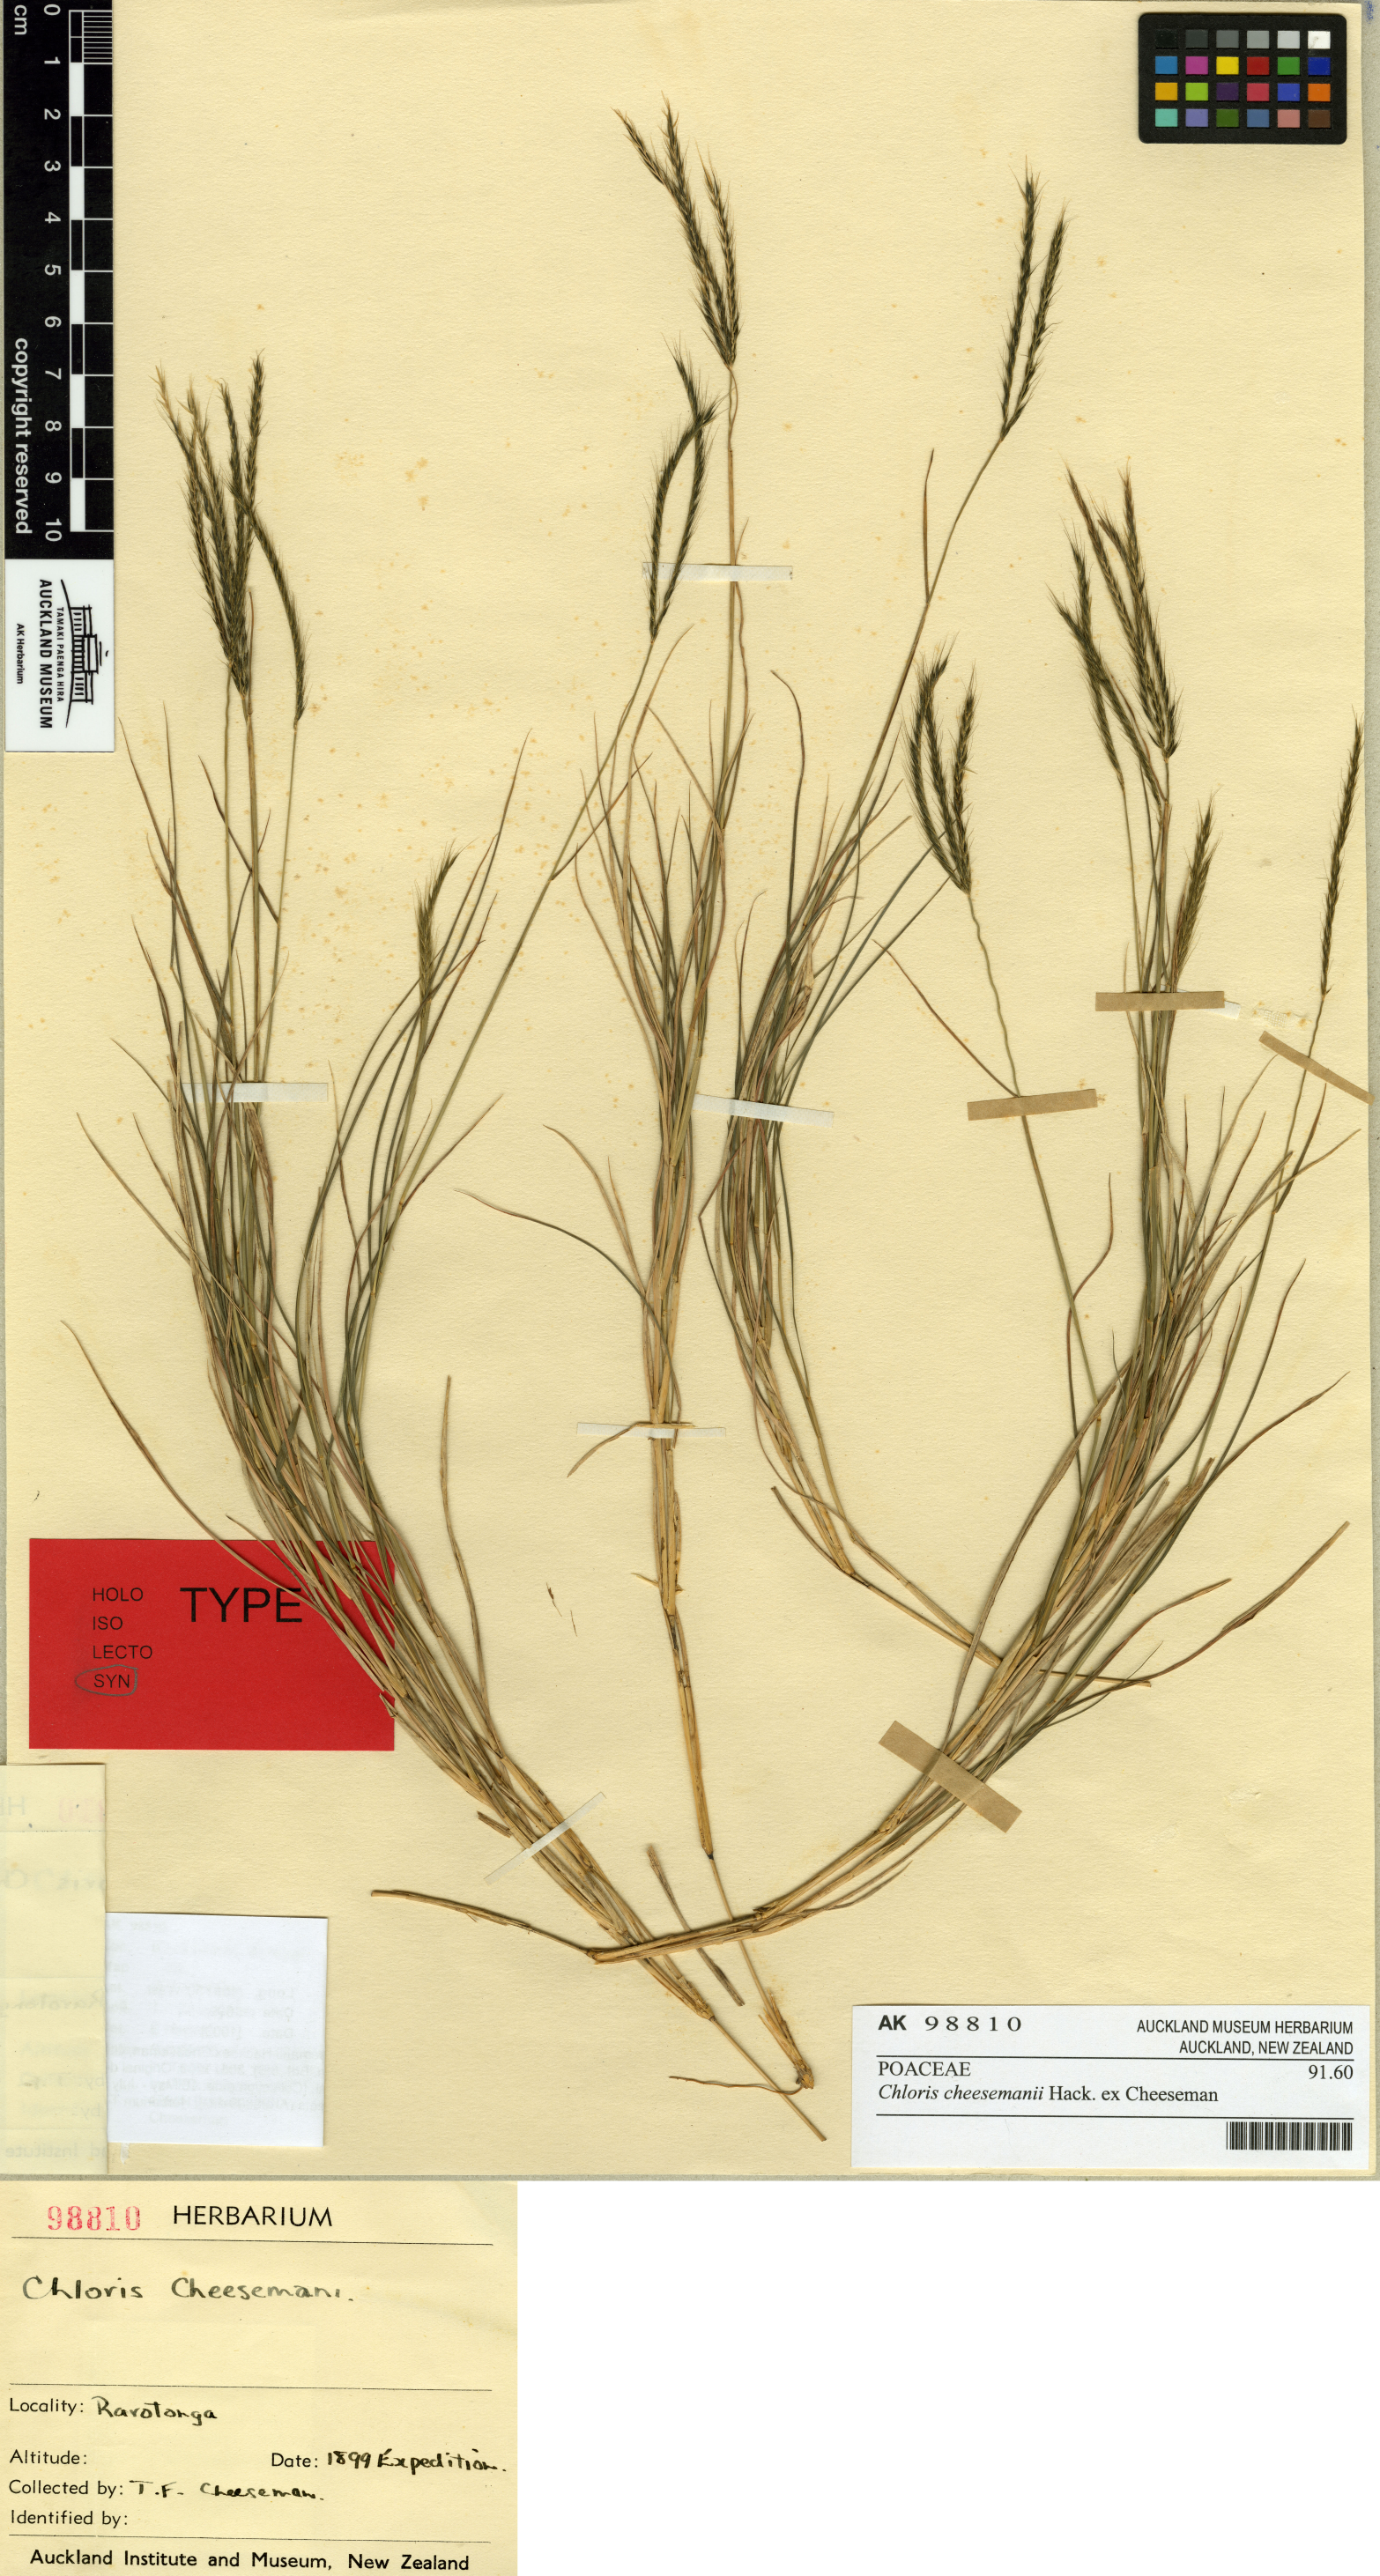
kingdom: Plantae
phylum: Tracheophyta
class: Liliopsida
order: Poales
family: Poaceae
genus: Enteropogon
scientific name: Enteropogon unispiceus
